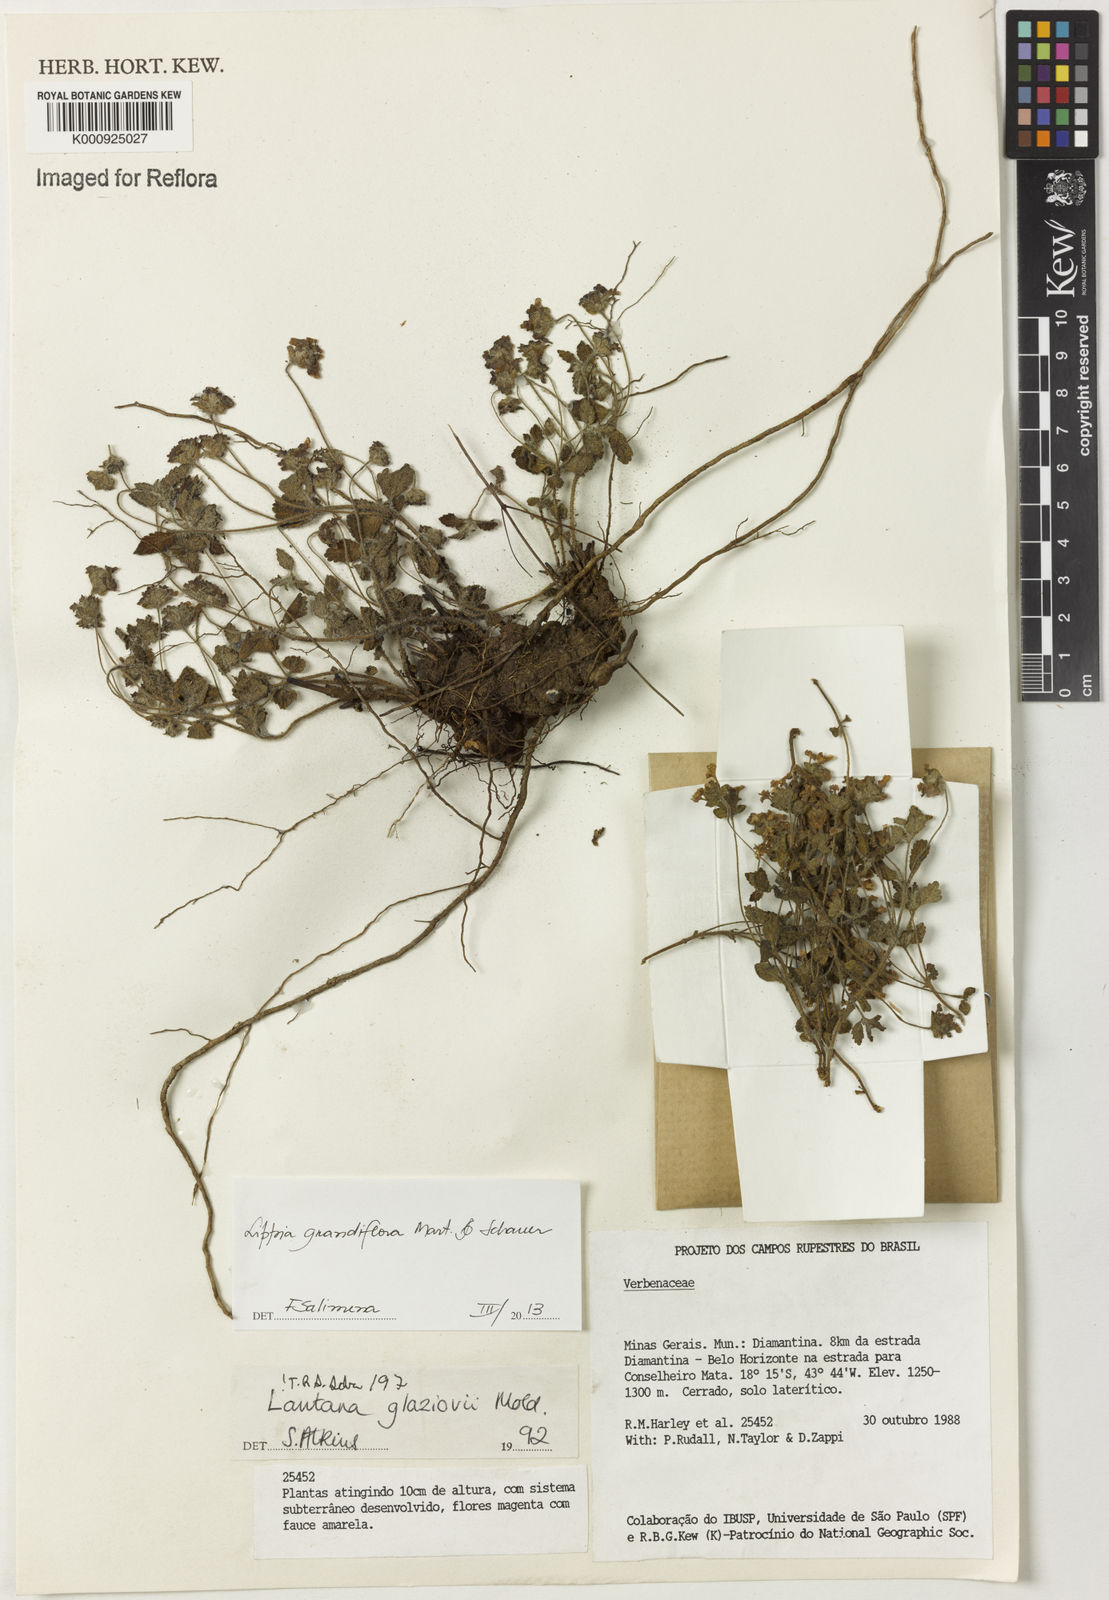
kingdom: Plantae
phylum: Tracheophyta
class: Magnoliopsida
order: Lamiales
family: Verbenaceae
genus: Lippia
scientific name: Lippia grandiflora
